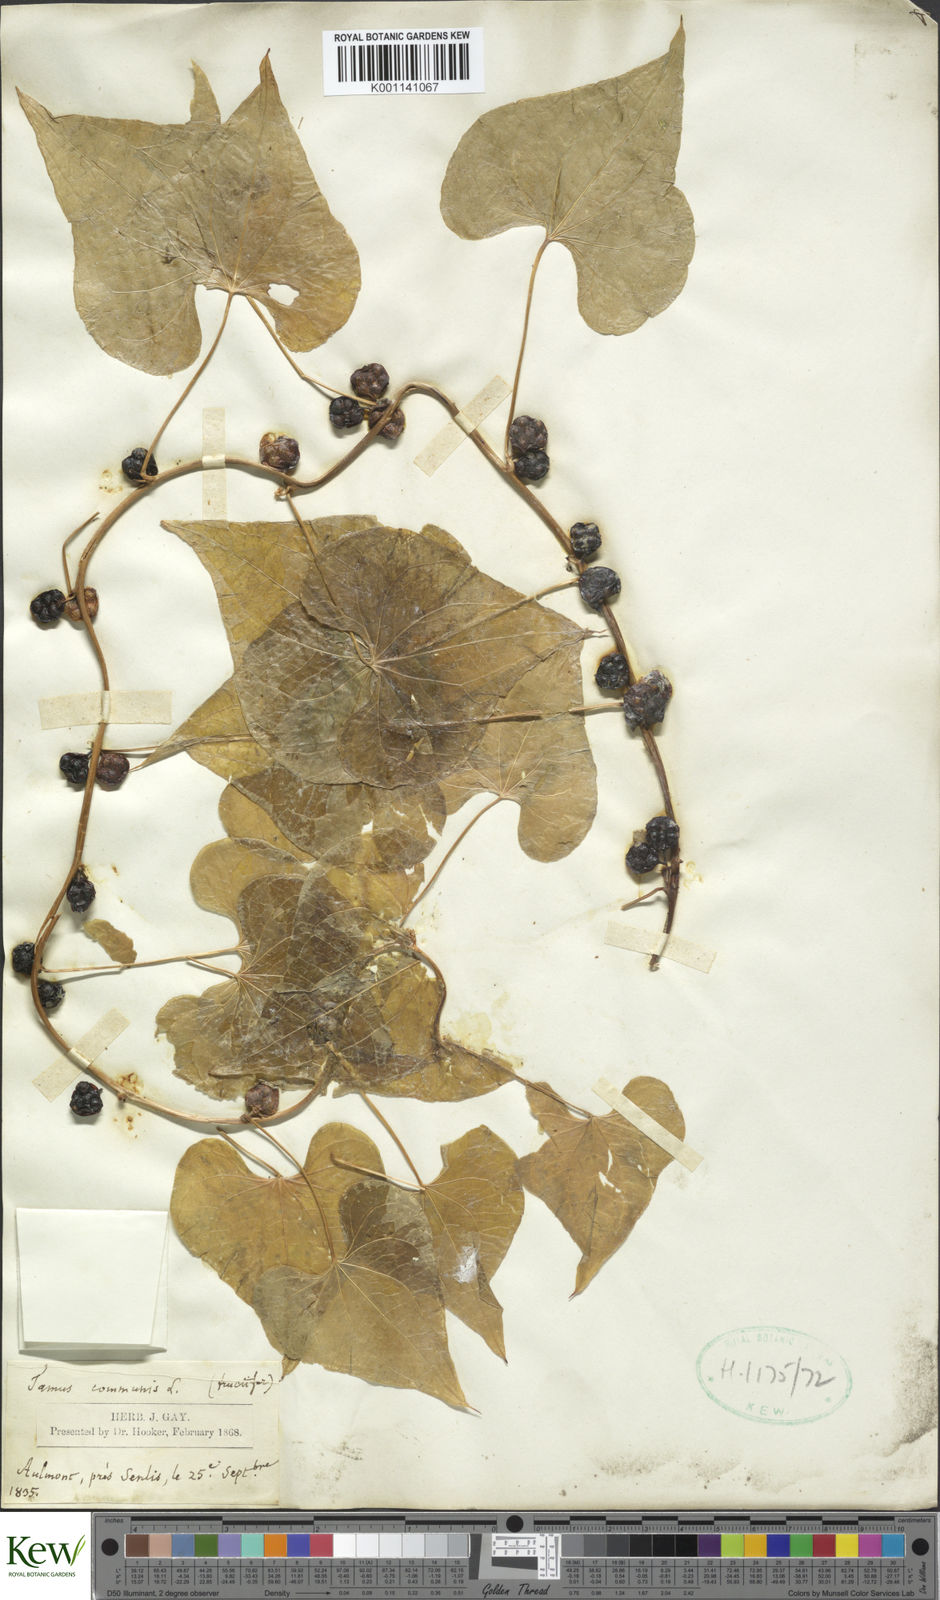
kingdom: Plantae
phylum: Tracheophyta
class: Liliopsida
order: Dioscoreales
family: Dioscoreaceae
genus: Dioscorea
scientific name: Dioscorea communis
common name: Black-bindweed
